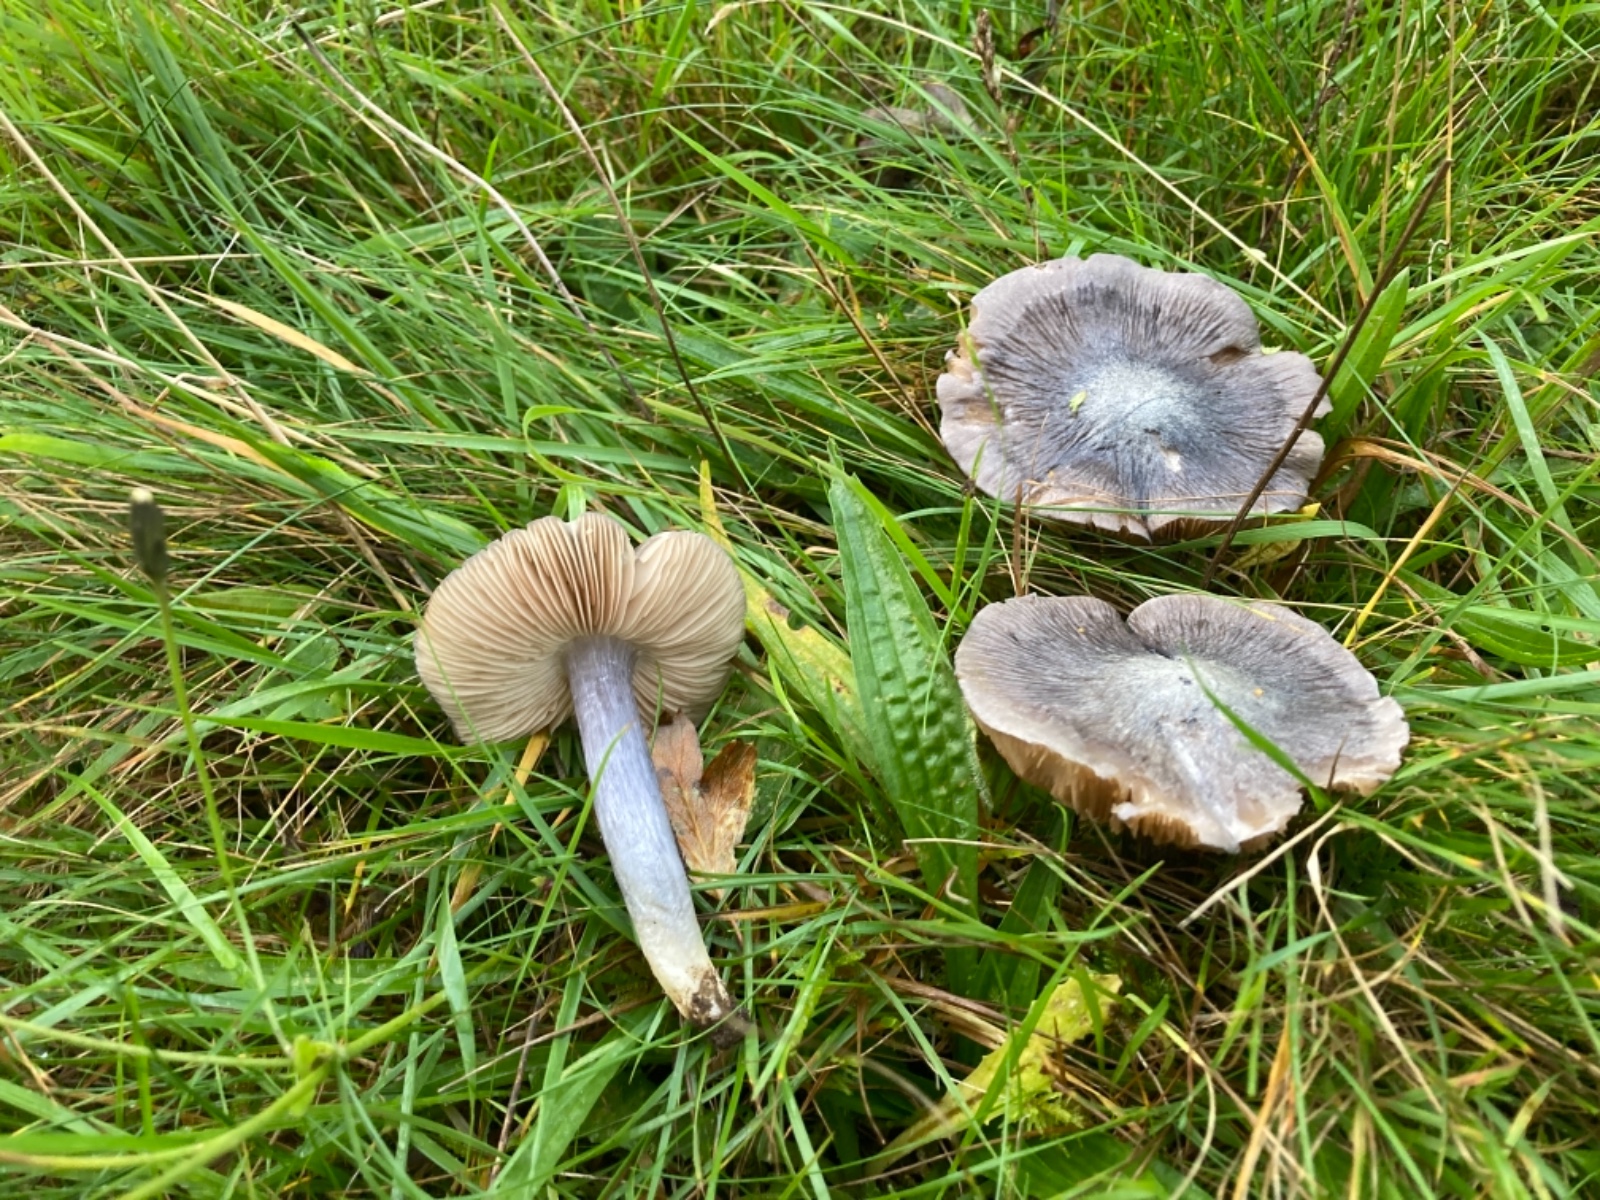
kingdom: Fungi
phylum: Basidiomycota
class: Agaricomycetes
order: Agaricales
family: Entolomataceae
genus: Entoloma
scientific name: Entoloma madidum
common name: indigo-rødblad
